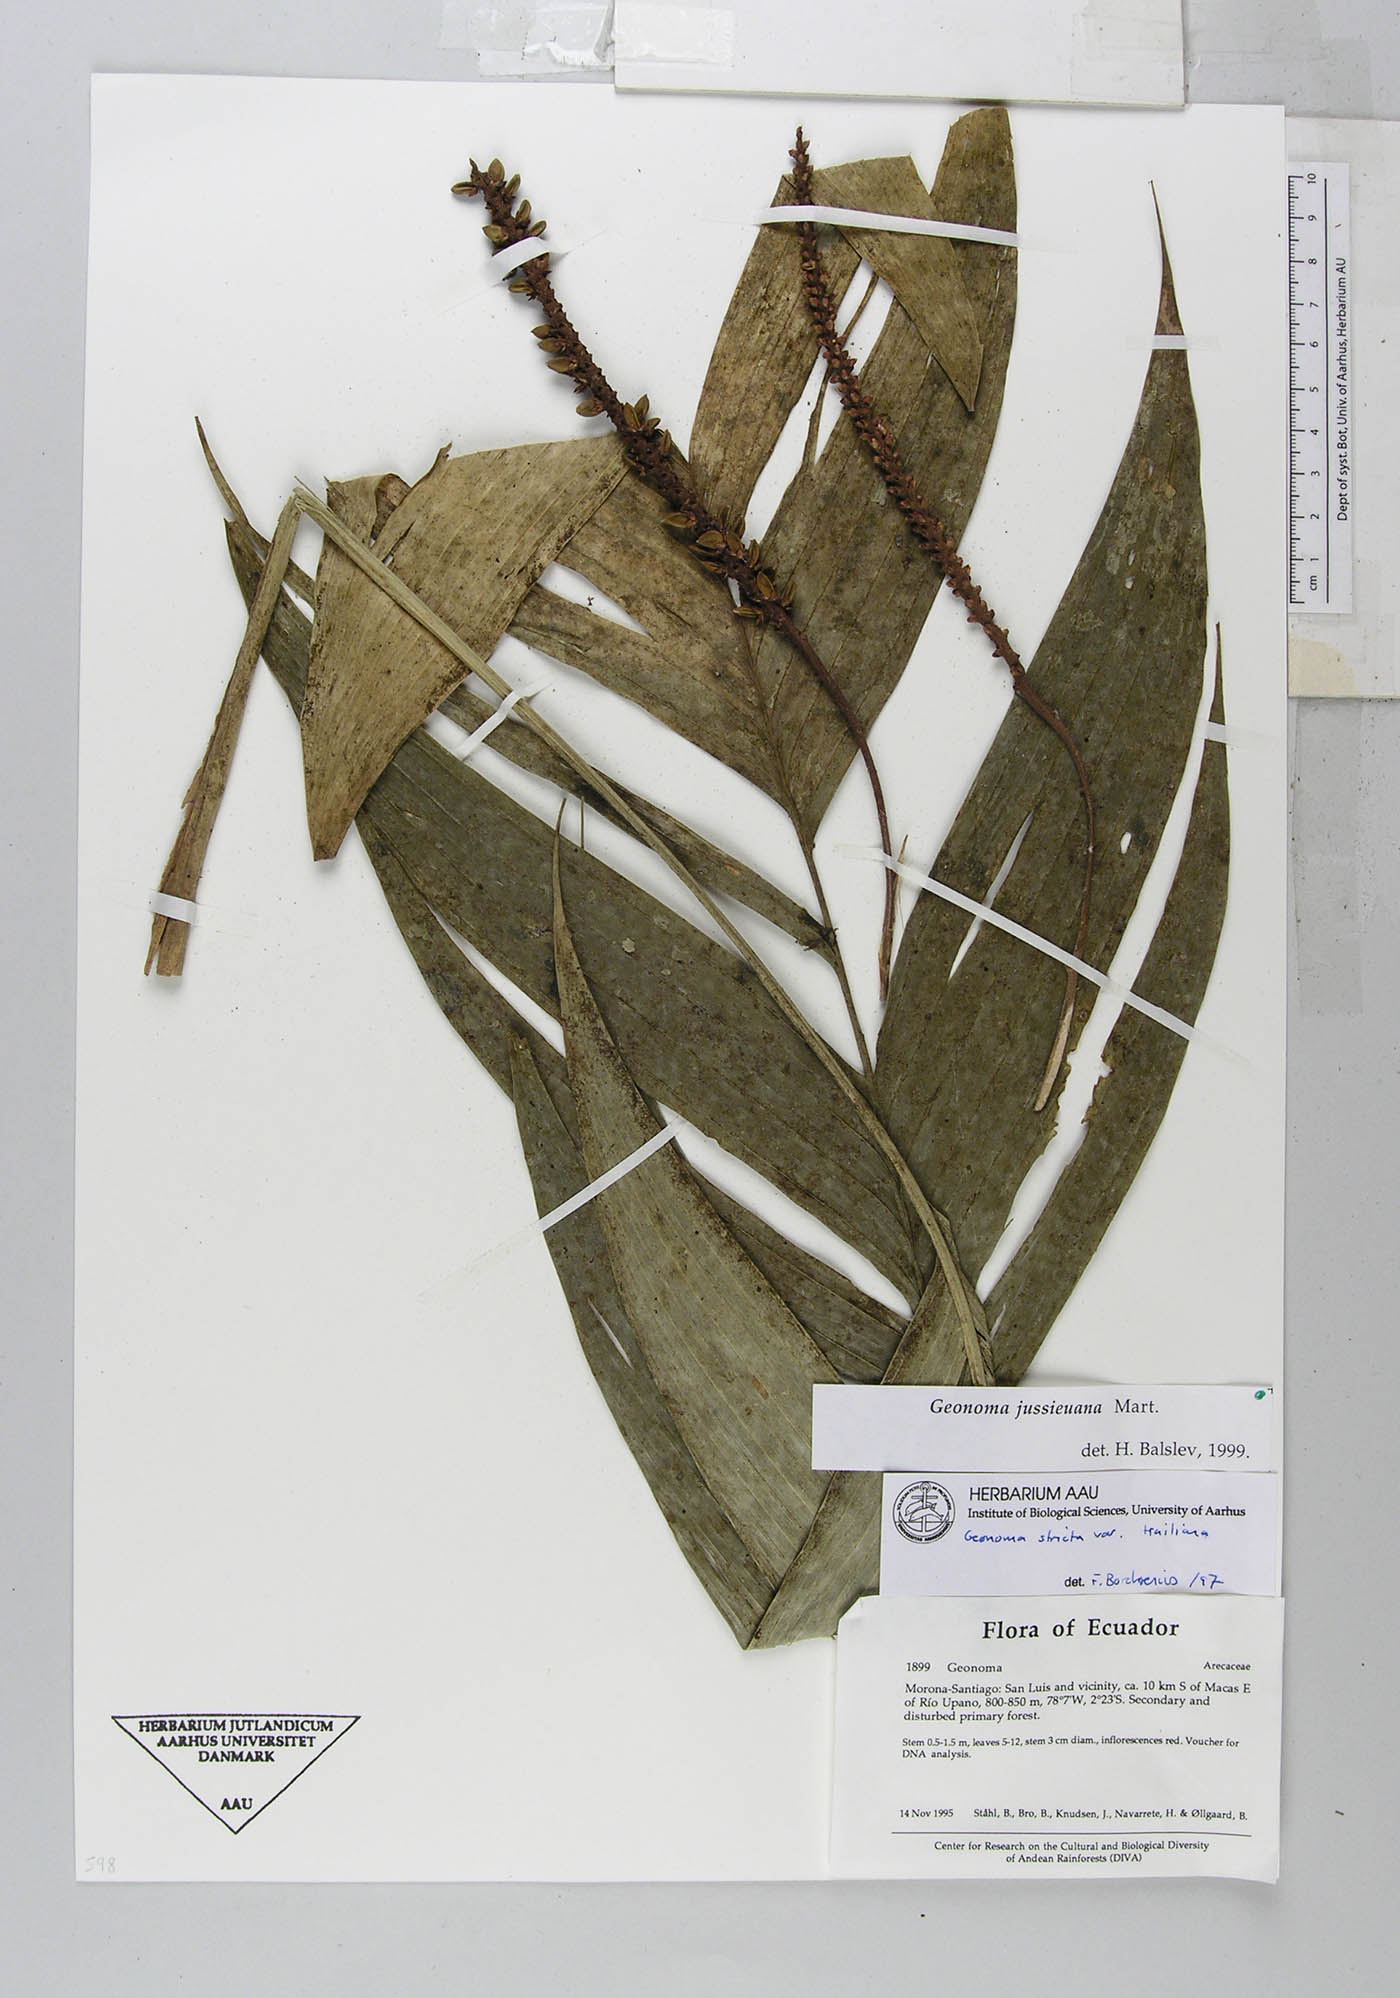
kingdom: Plantae
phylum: Tracheophyta
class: Liliopsida
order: Arecales
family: Arecaceae
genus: Geonoma
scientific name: Geonoma stricta
